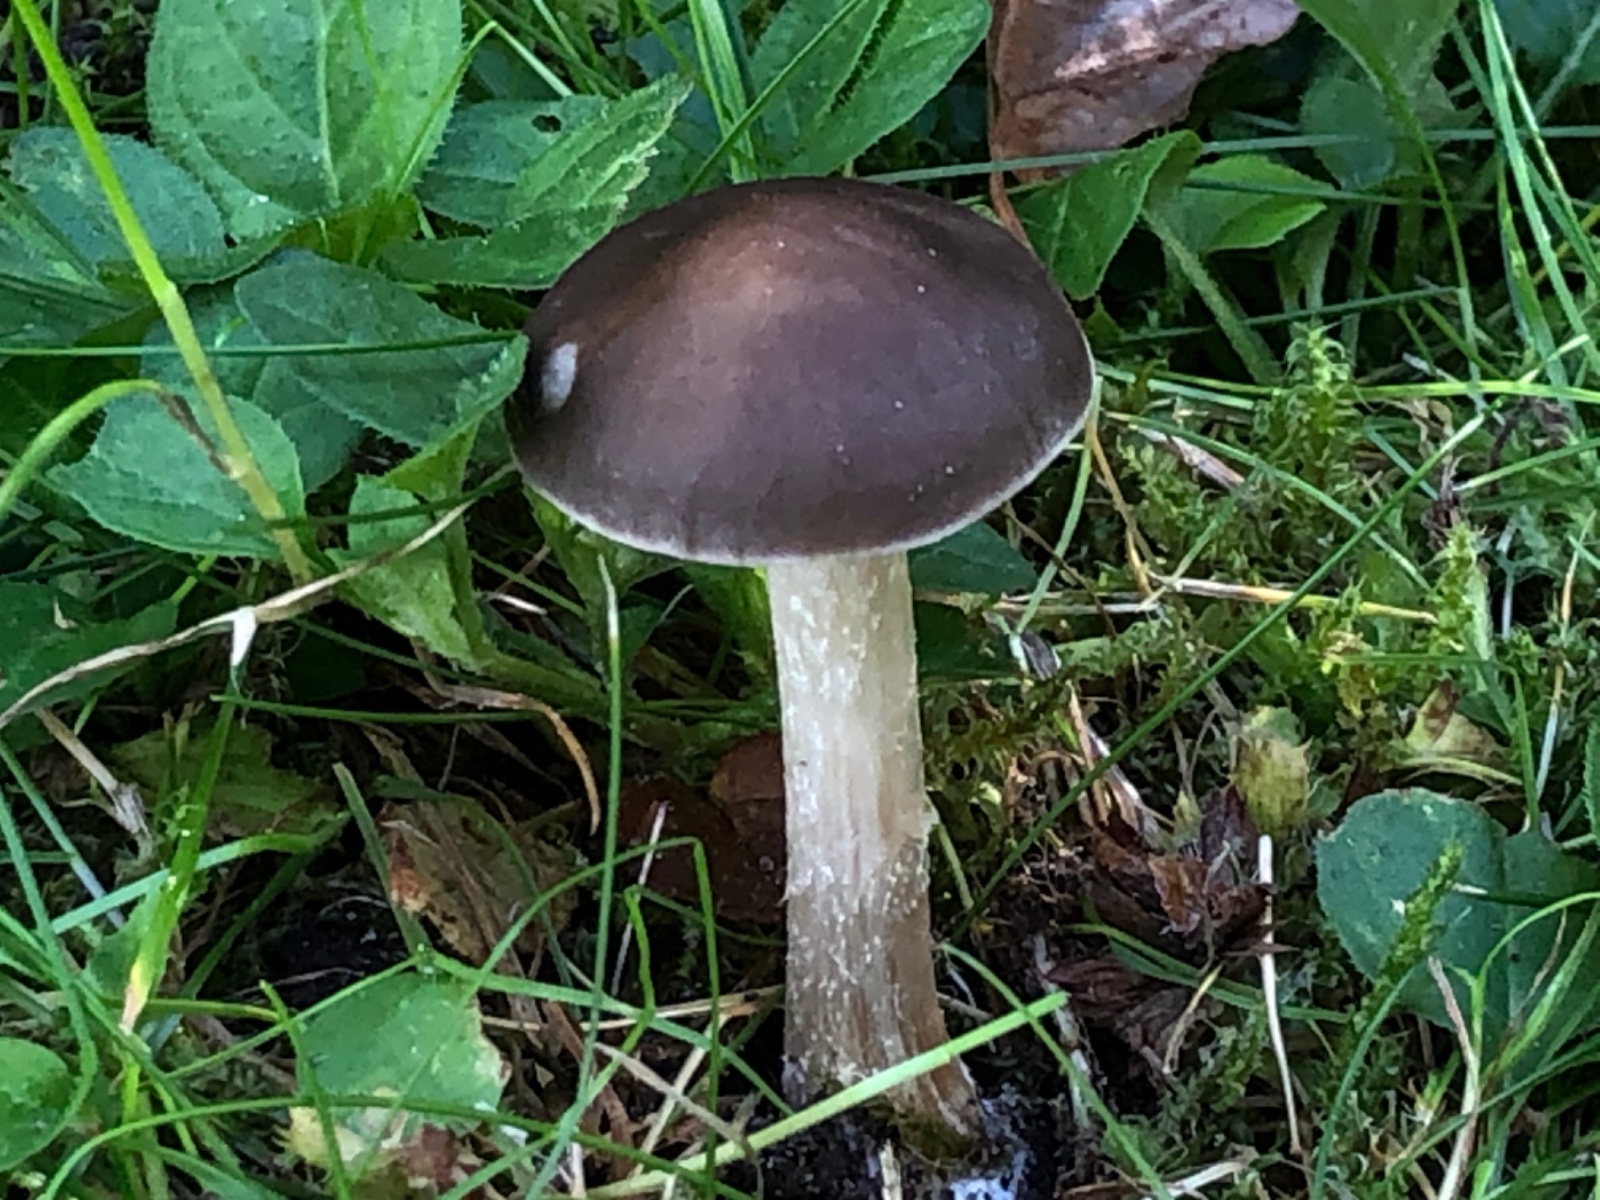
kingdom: Fungi
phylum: Basidiomycota
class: Agaricomycetes
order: Agaricales
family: Tricholomataceae
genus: Melanoleuca
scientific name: Melanoleuca
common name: munkehat
